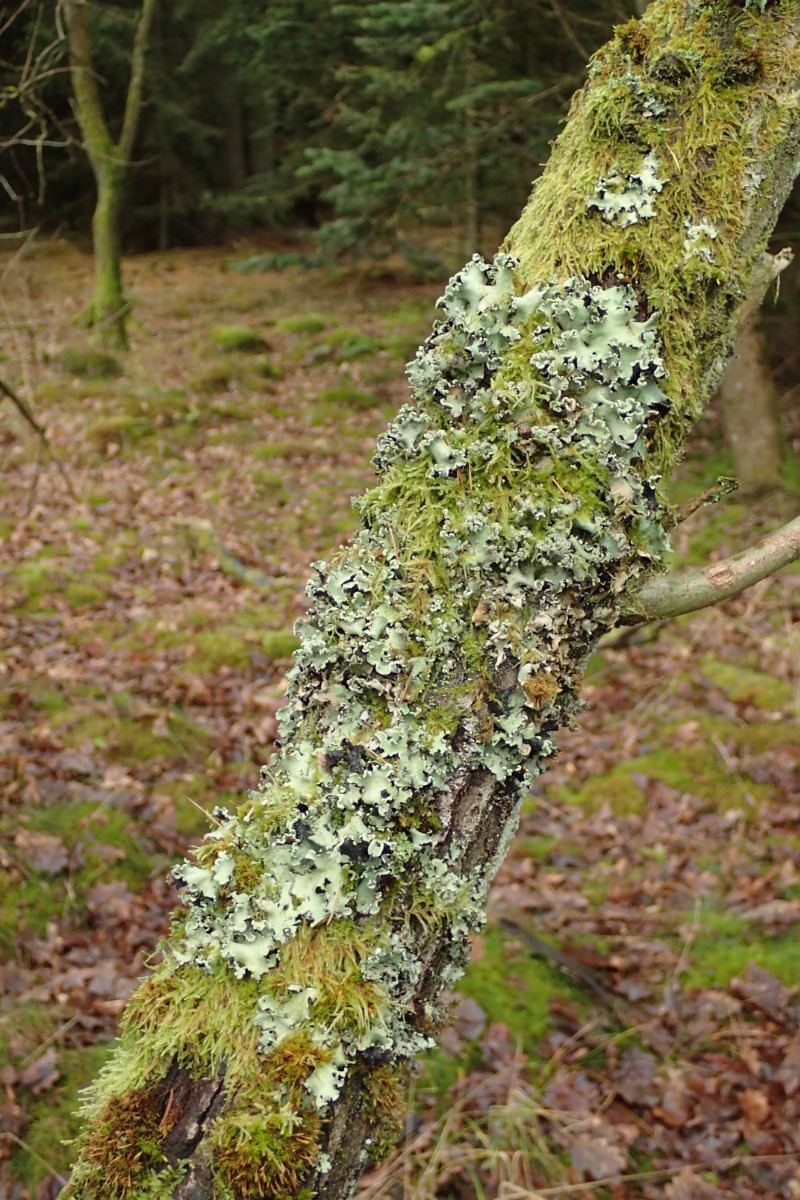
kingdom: Fungi
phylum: Ascomycota
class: Lecanoromycetes
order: Lecanorales
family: Parmeliaceae
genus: Parmotrema
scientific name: Parmotrema perlatum
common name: trådet skållav
